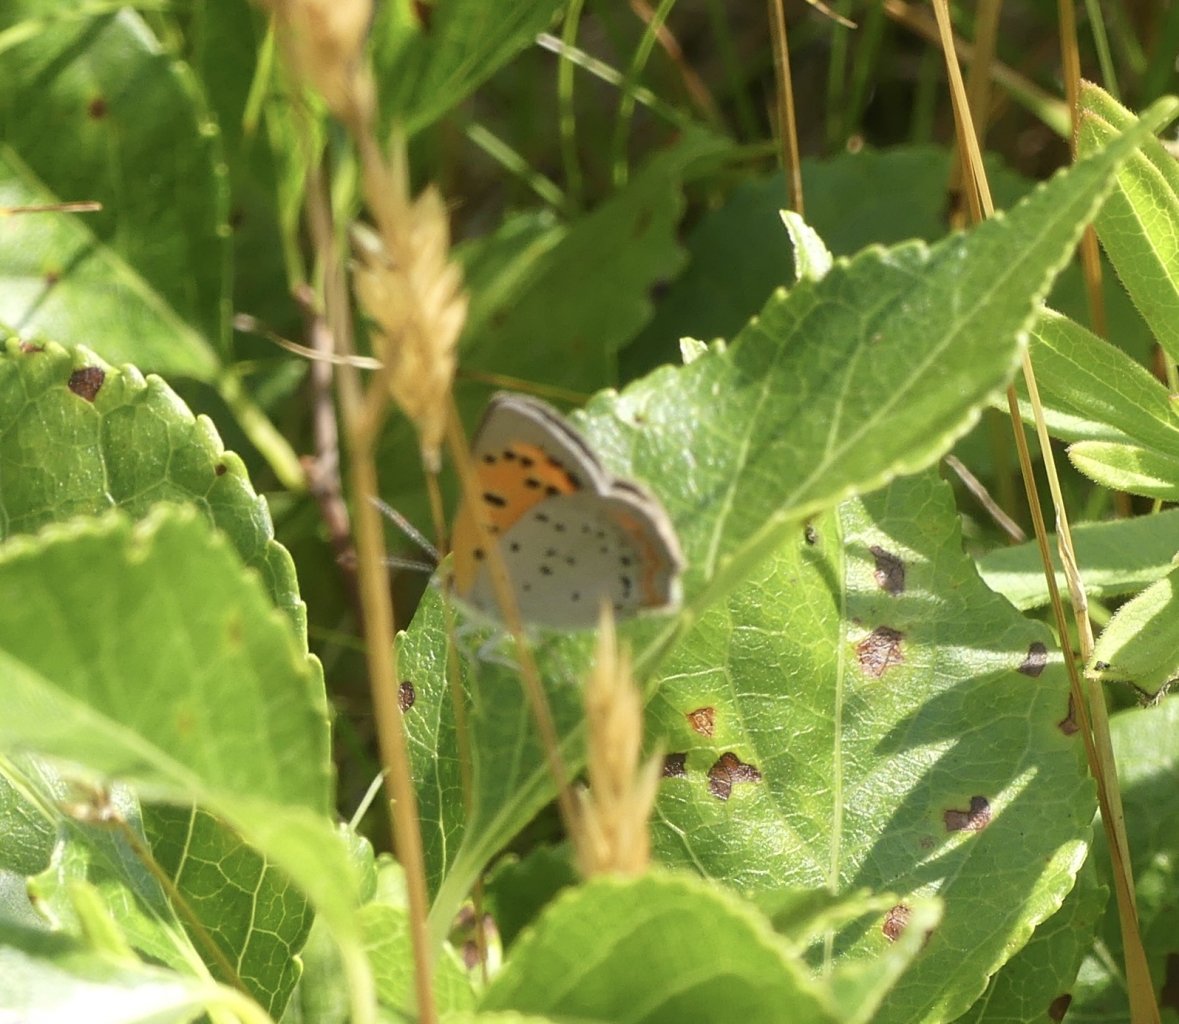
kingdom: Animalia
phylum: Arthropoda
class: Insecta
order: Lepidoptera
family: Lycaenidae
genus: Lycaena
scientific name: Lycaena phlaeas
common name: American Copper
